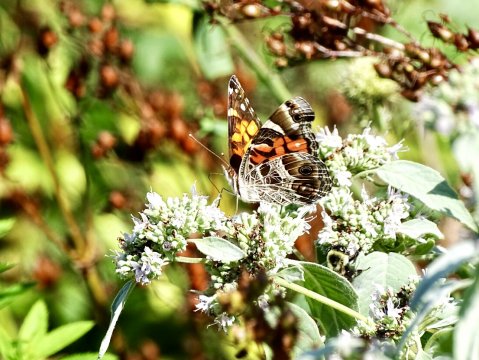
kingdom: Animalia
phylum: Arthropoda
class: Insecta
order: Lepidoptera
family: Nymphalidae
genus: Vanessa
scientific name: Vanessa virginiensis
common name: American Lady
